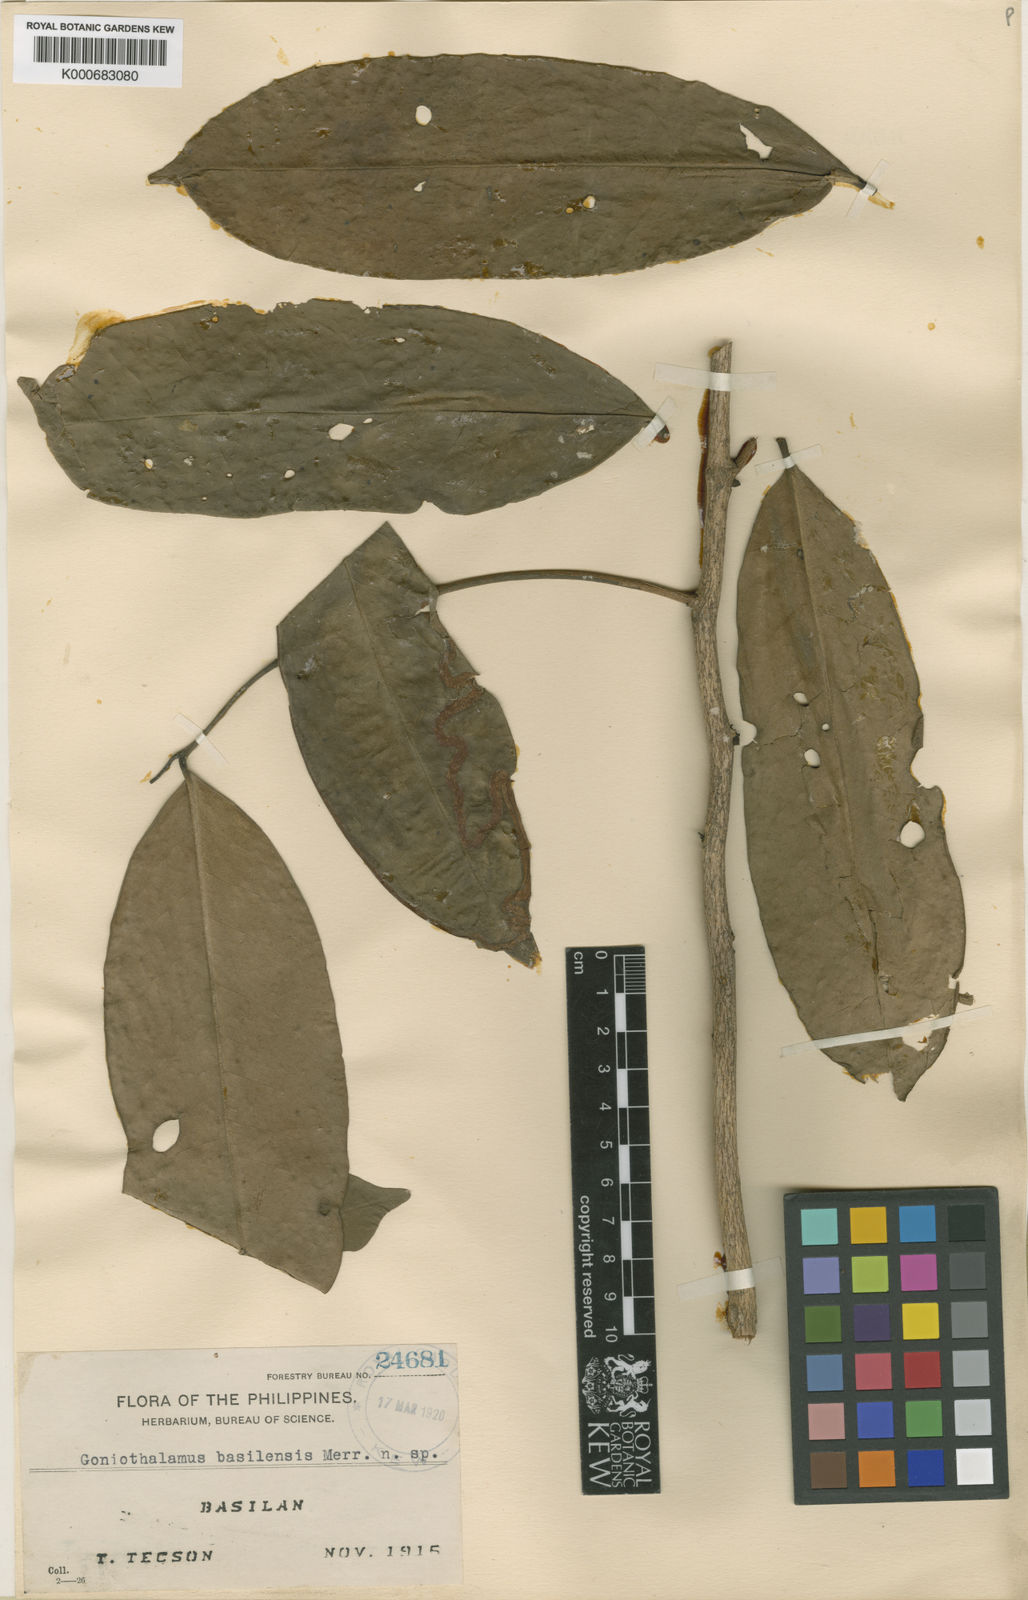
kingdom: Plantae
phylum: Tracheophyta
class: Magnoliopsida
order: Magnoliales
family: Annonaceae
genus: Goniothalamus
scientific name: Goniothalamus
